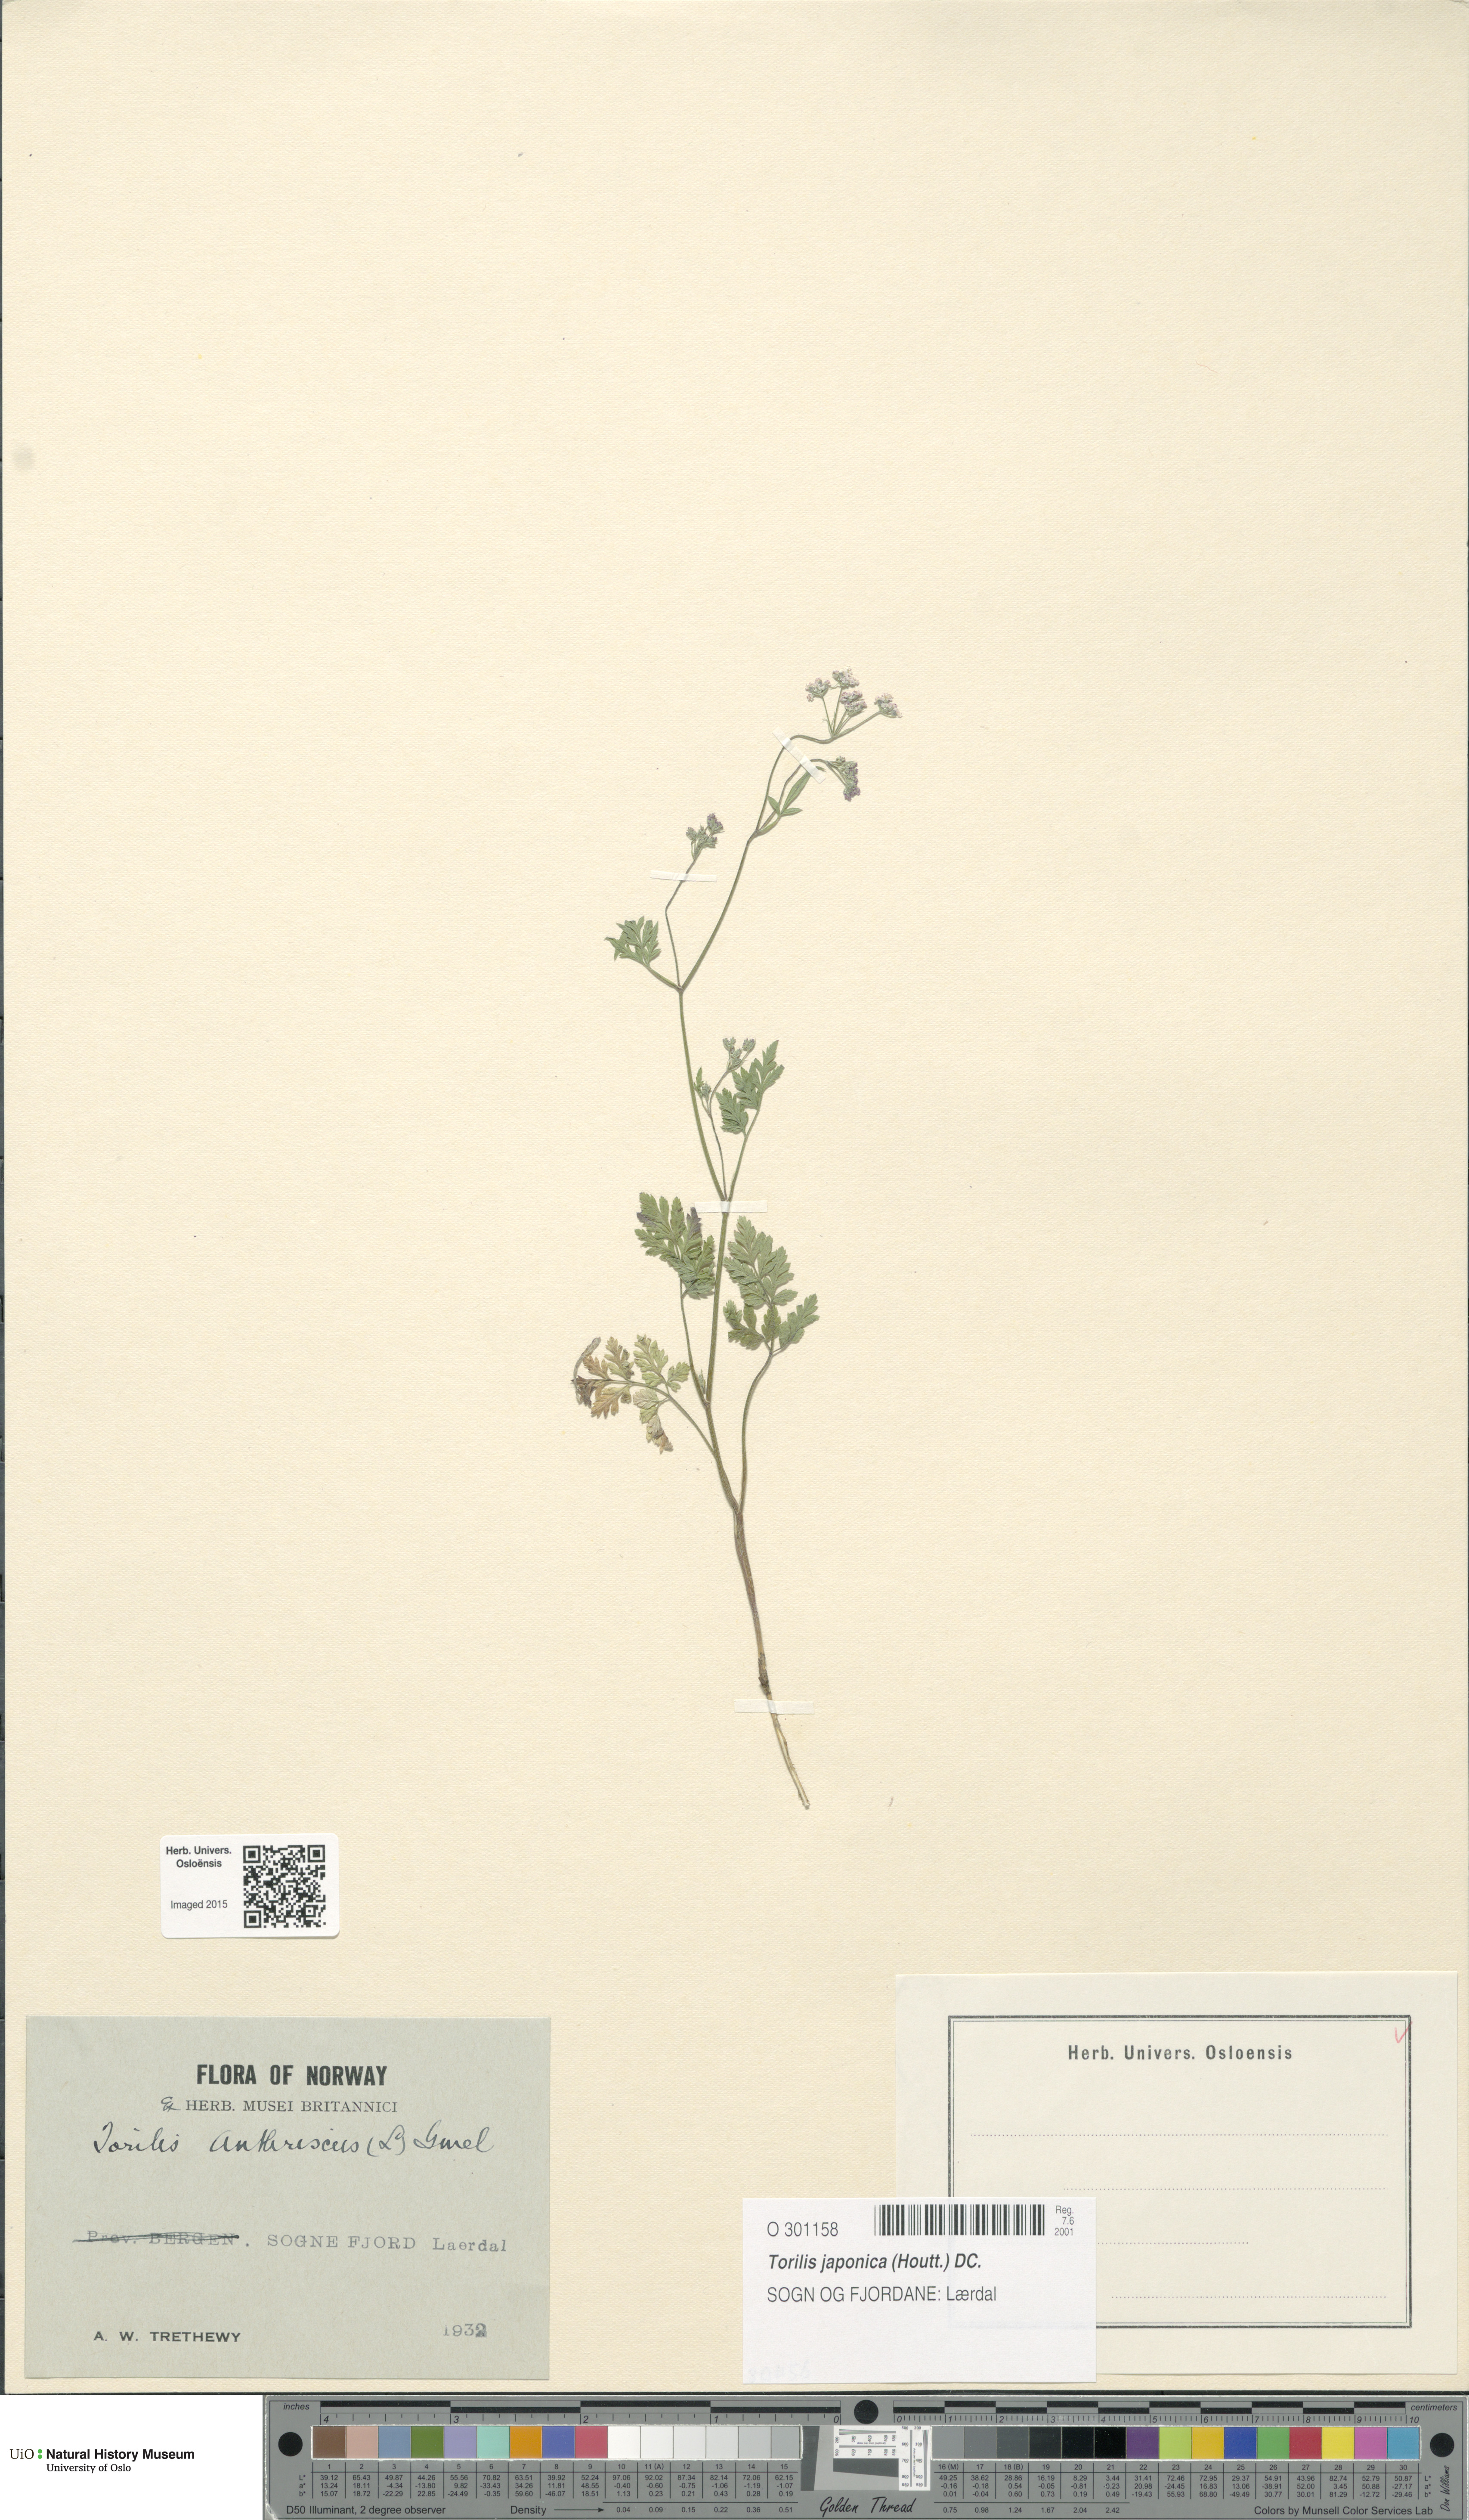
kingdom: Plantae
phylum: Tracheophyta
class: Magnoliopsida
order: Apiales
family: Apiaceae
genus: Torilis
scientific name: Torilis japonica
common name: Upright hedge-parsley
